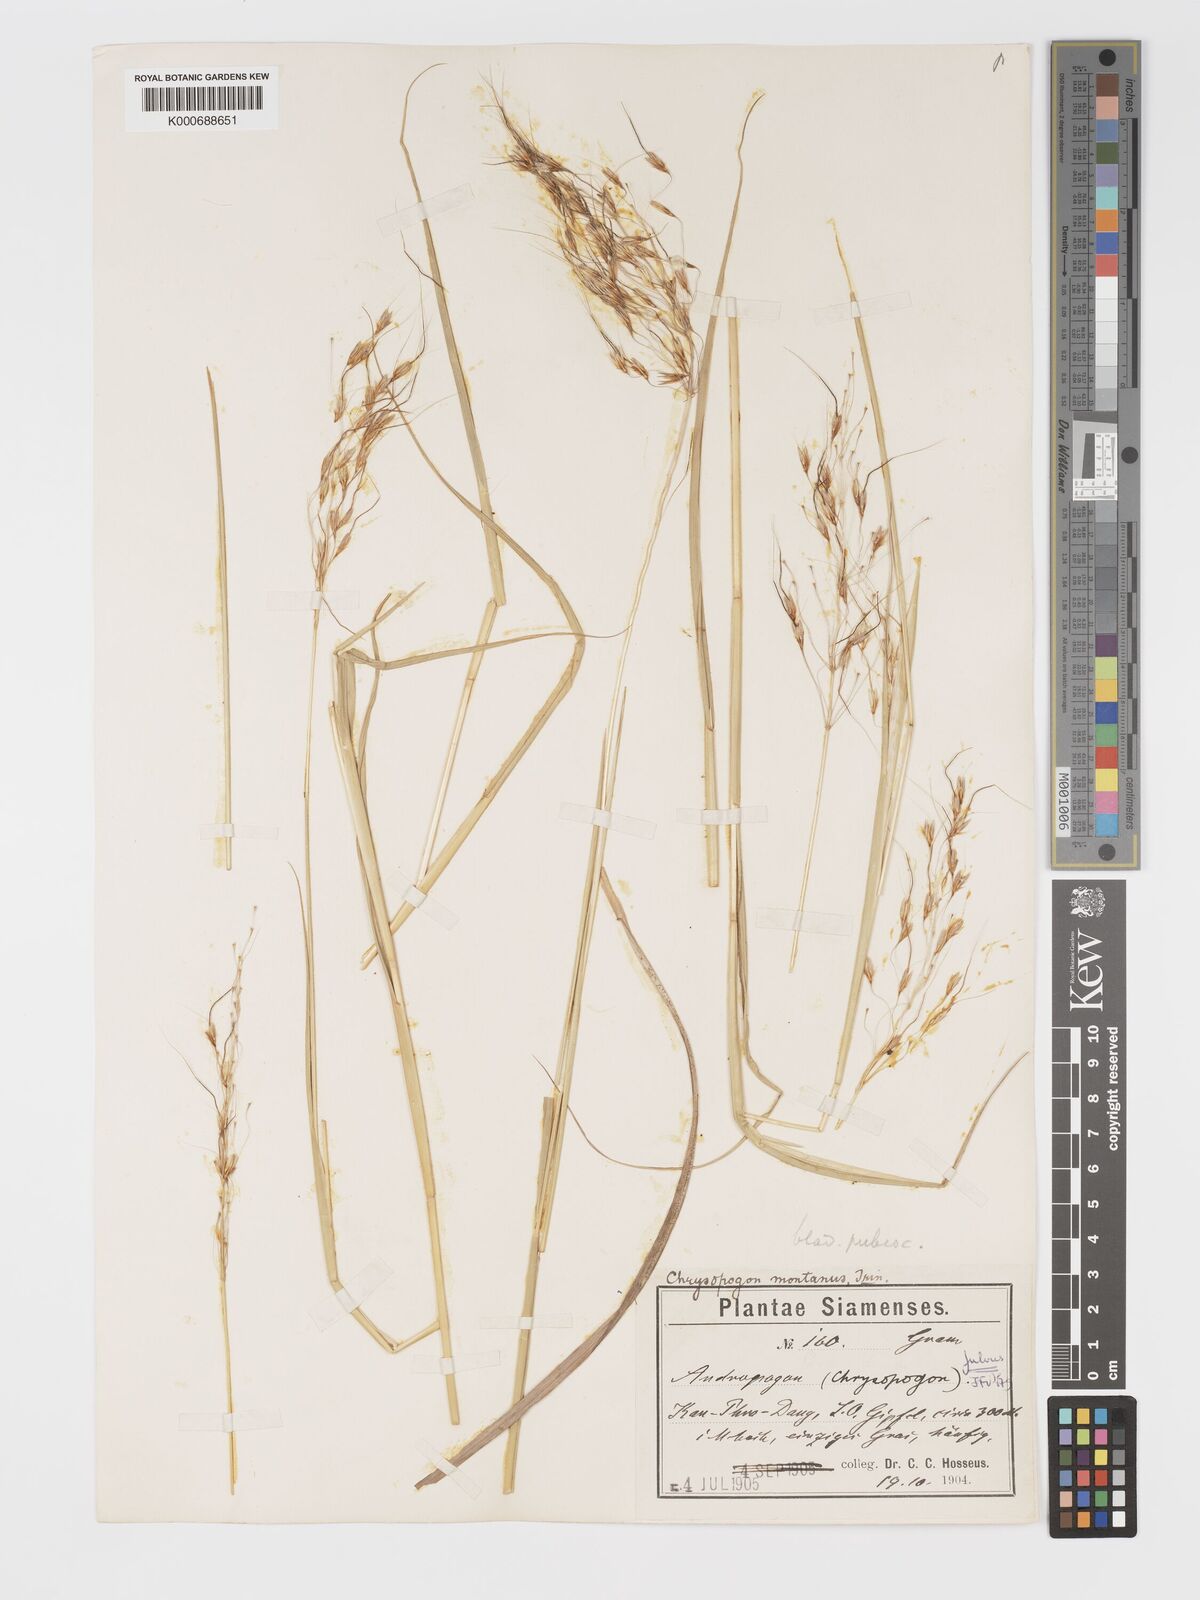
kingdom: Plantae
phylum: Tracheophyta
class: Liliopsida
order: Poales
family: Poaceae
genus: Chrysopogon
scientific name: Chrysopogon fulvus
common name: Red false beardgrass
